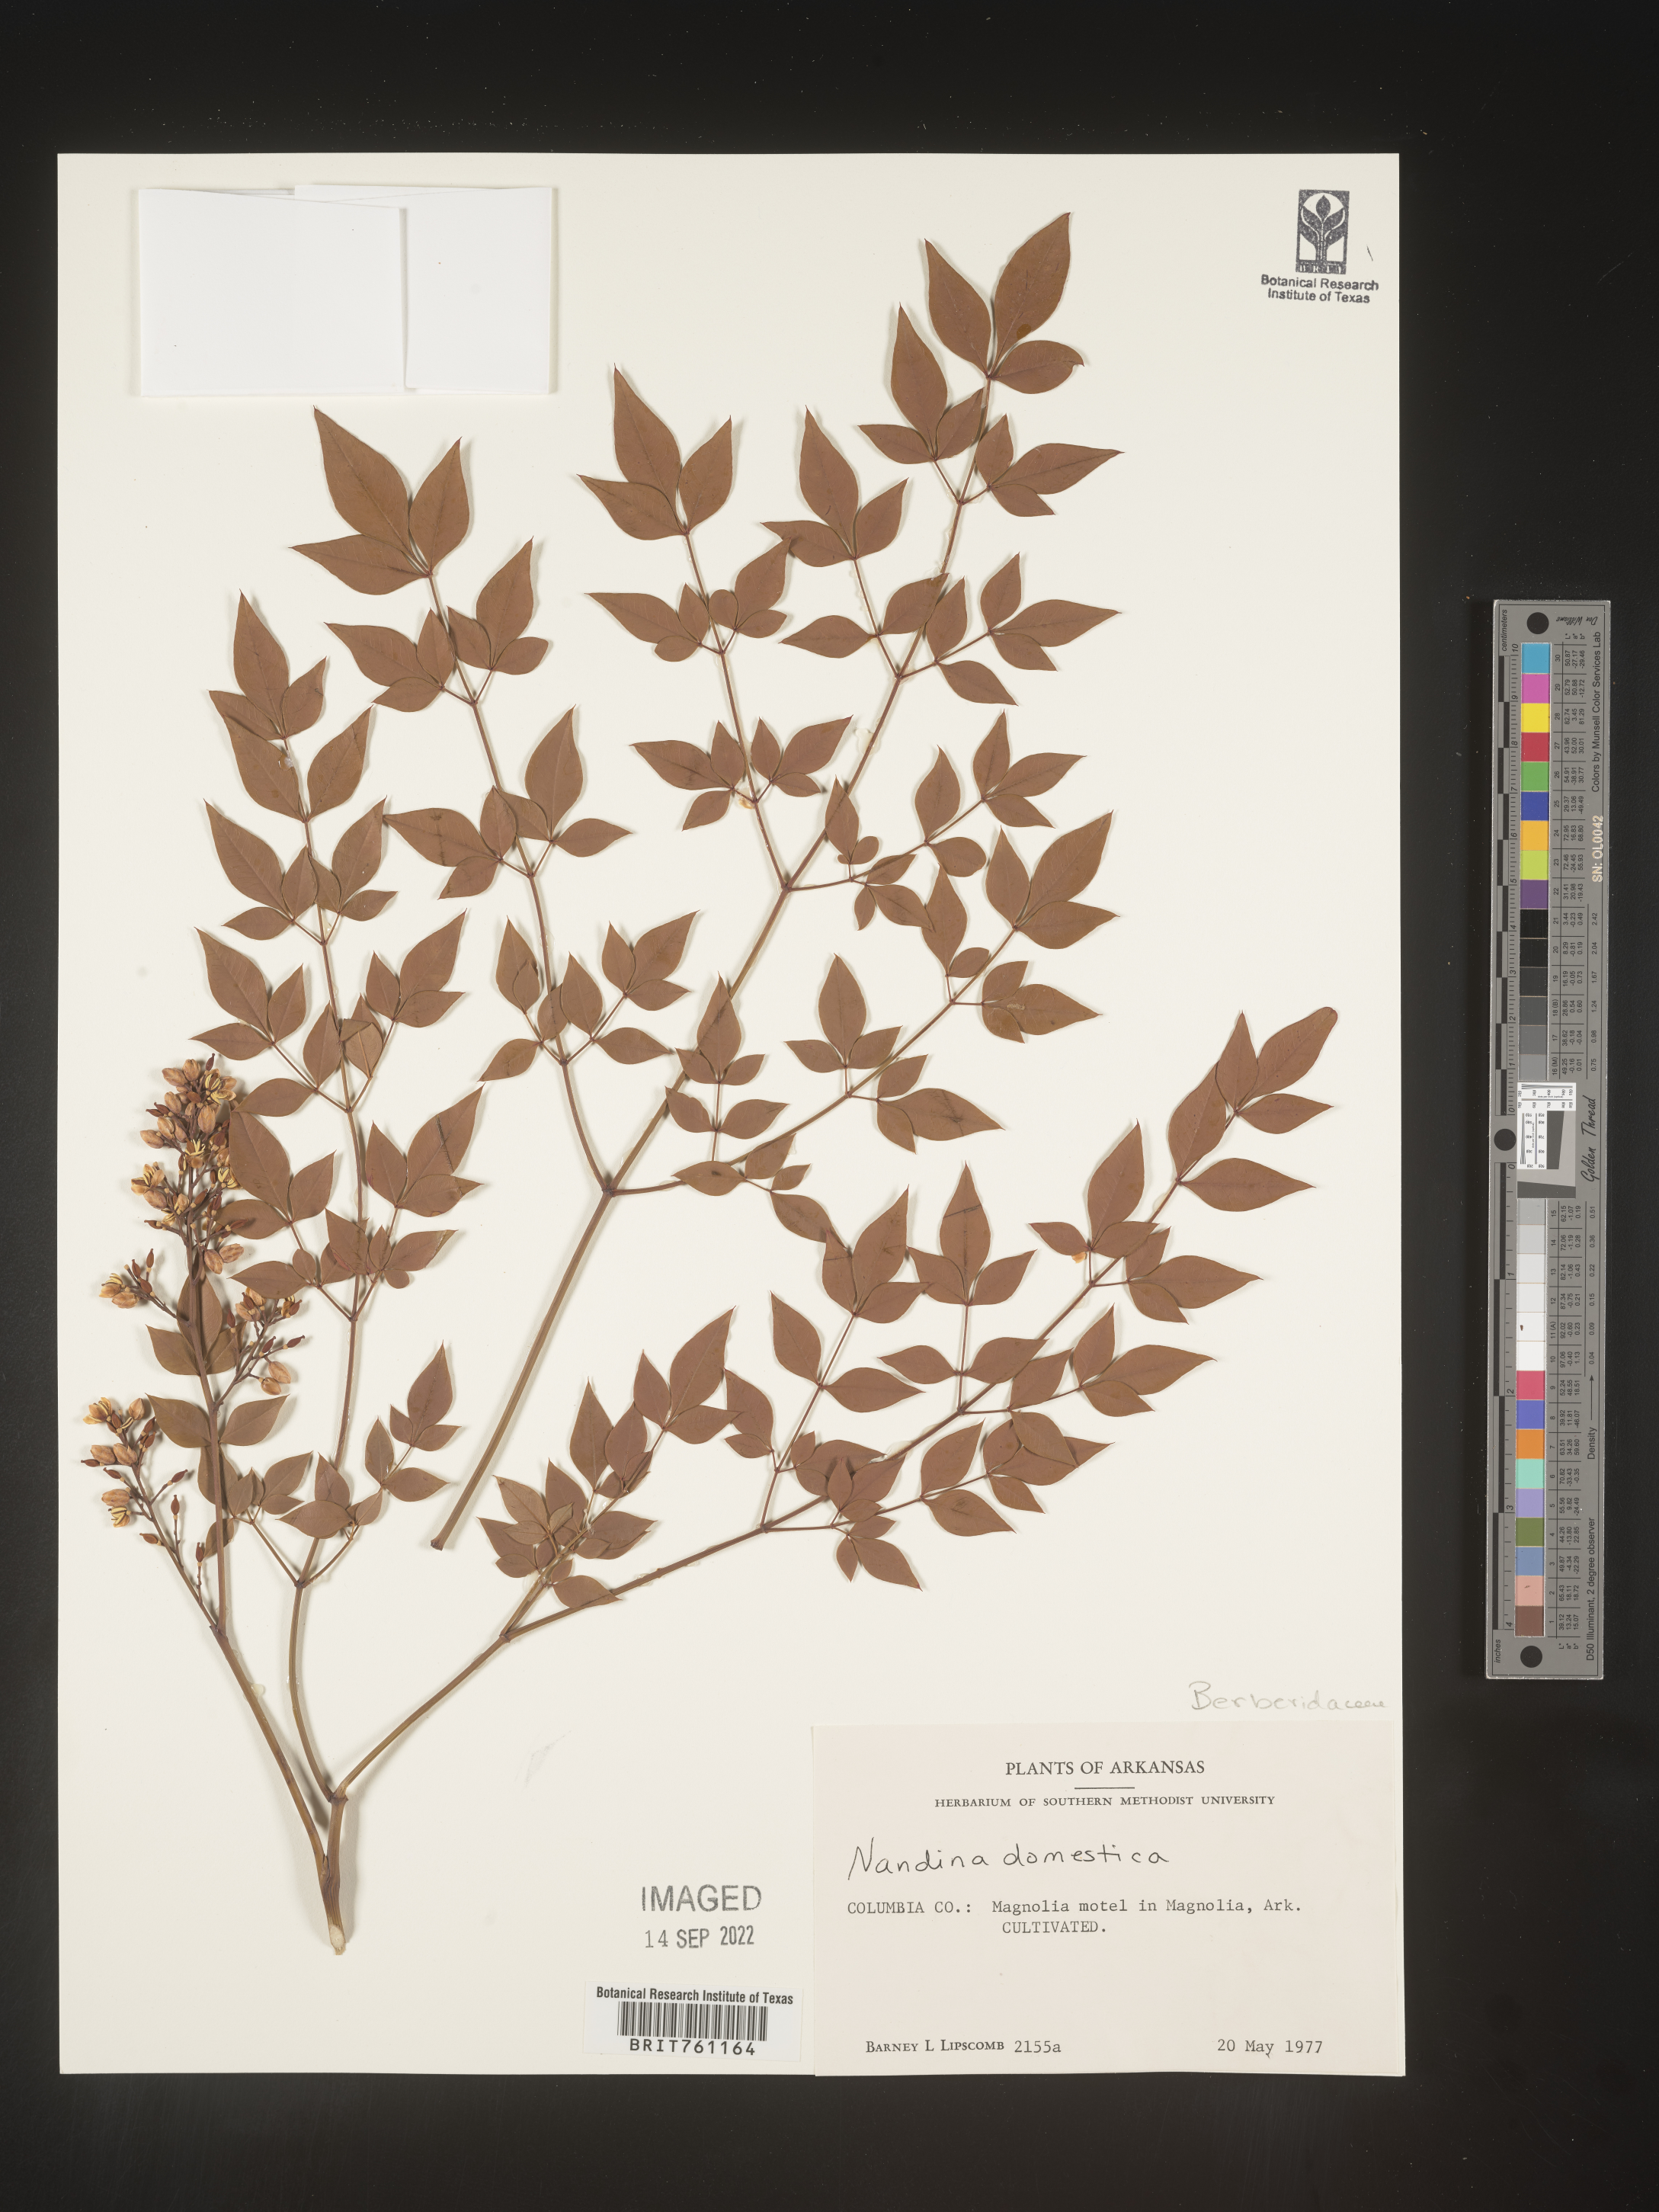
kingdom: Plantae
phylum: Tracheophyta
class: Magnoliopsida
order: Ranunculales
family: Berberidaceae
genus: Nandina
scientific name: Nandina
